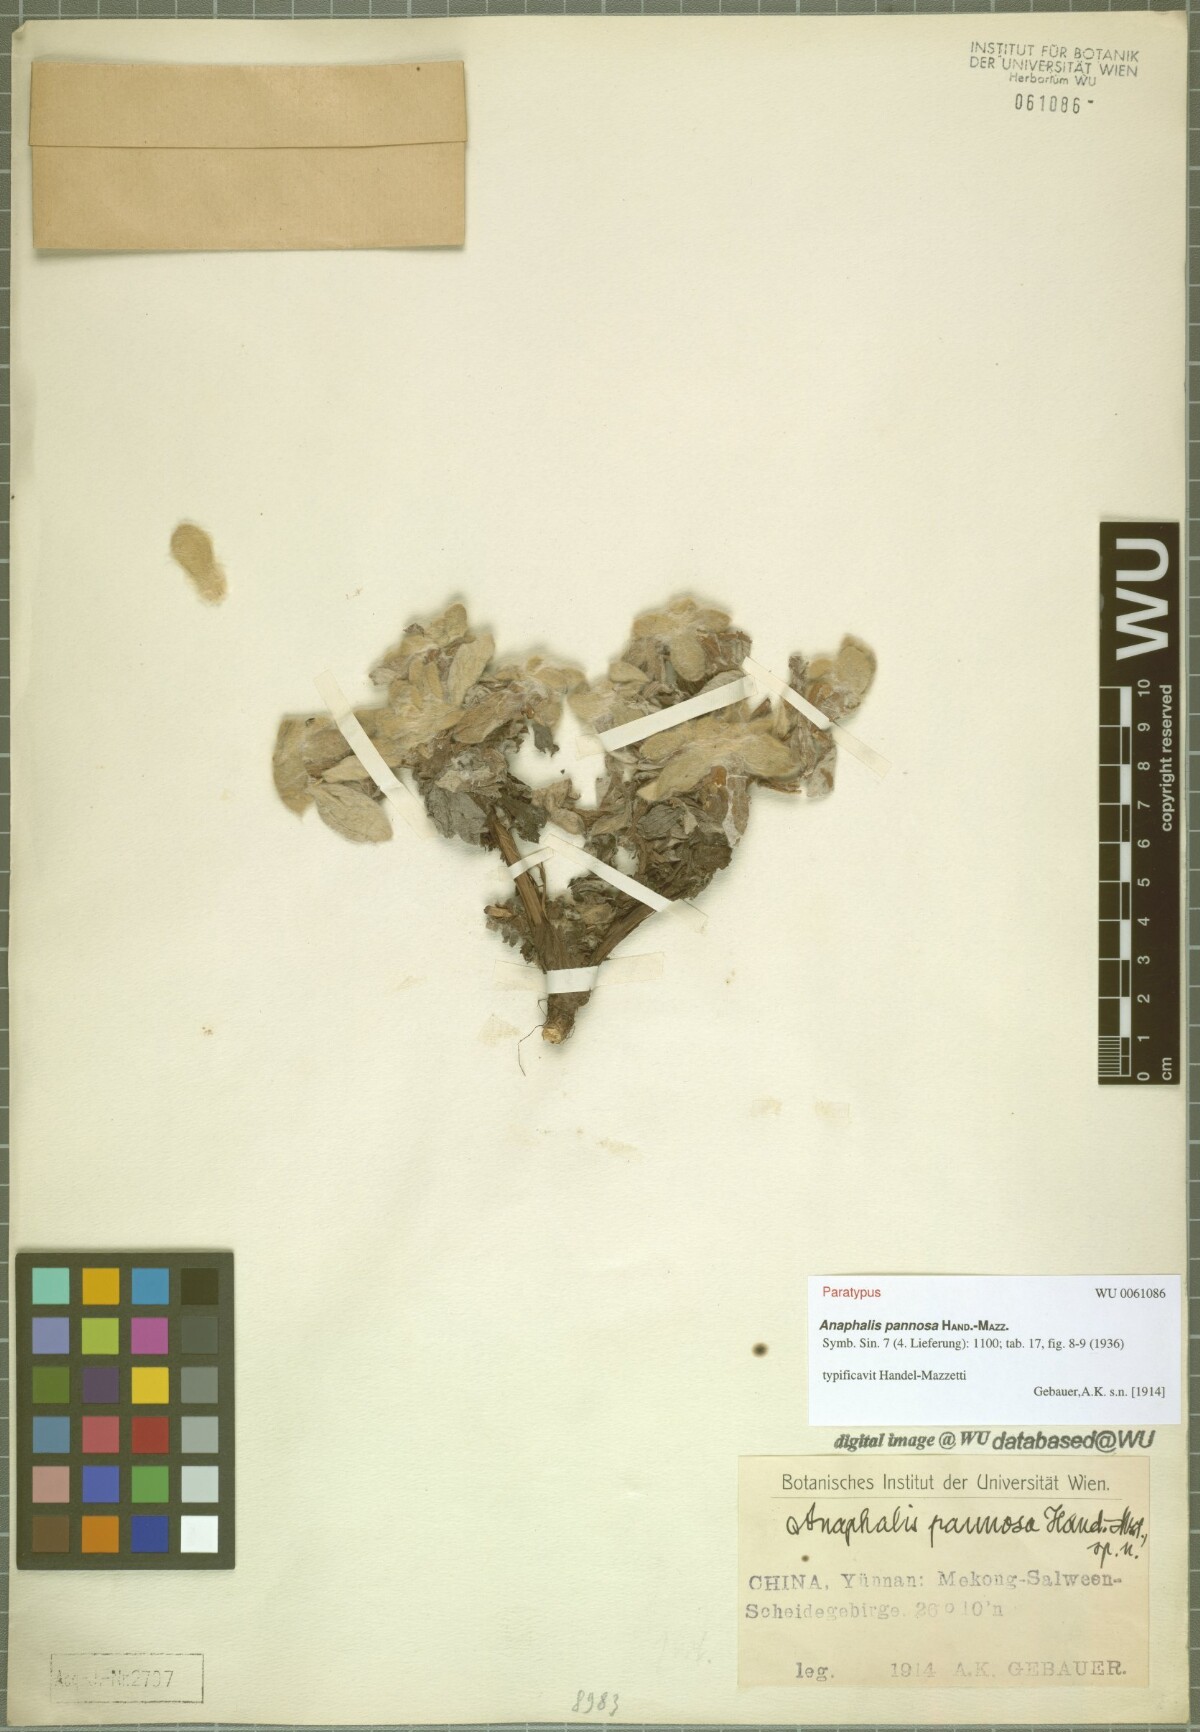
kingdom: Plantae
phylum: Tracheophyta
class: Magnoliopsida
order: Asterales
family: Asteraceae
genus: Anaphalis
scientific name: Anaphalis pannosa
